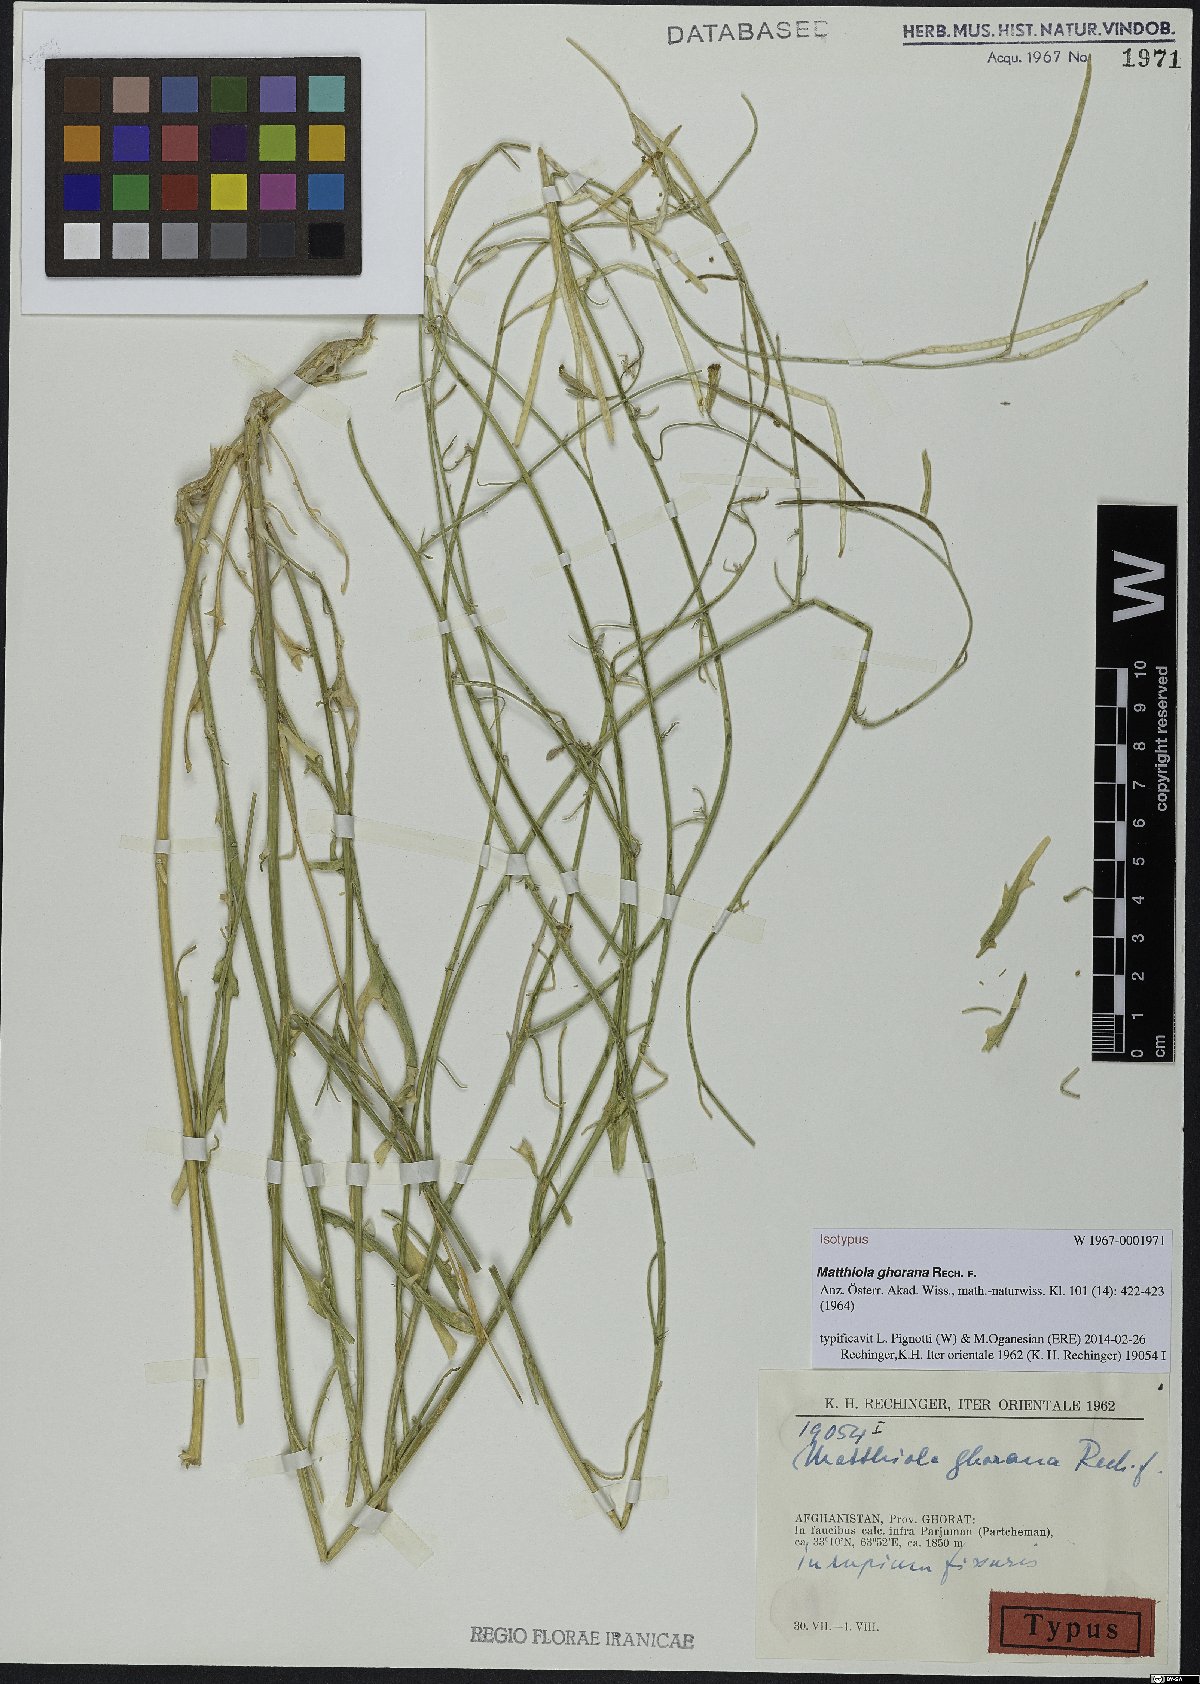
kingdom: Plantae
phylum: Tracheophyta
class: Magnoliopsida
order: Brassicales
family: Brassicaceae
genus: Matthiola
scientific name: Matthiola ghorana
